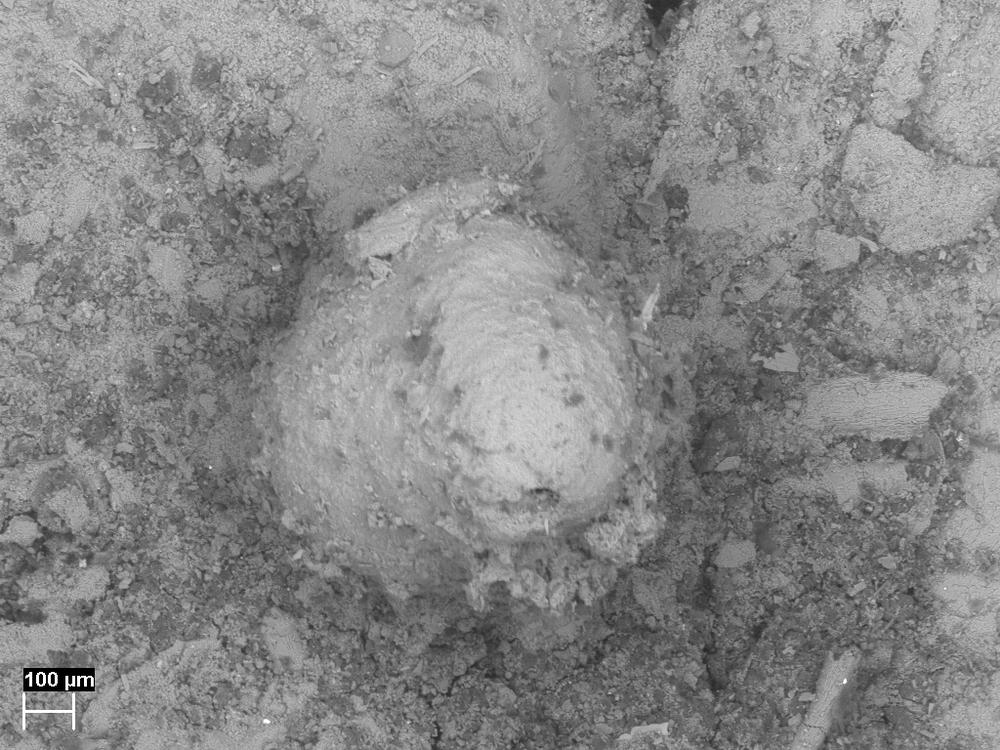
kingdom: Animalia
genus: Burrinjuckia
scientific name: Burrinjuckia
